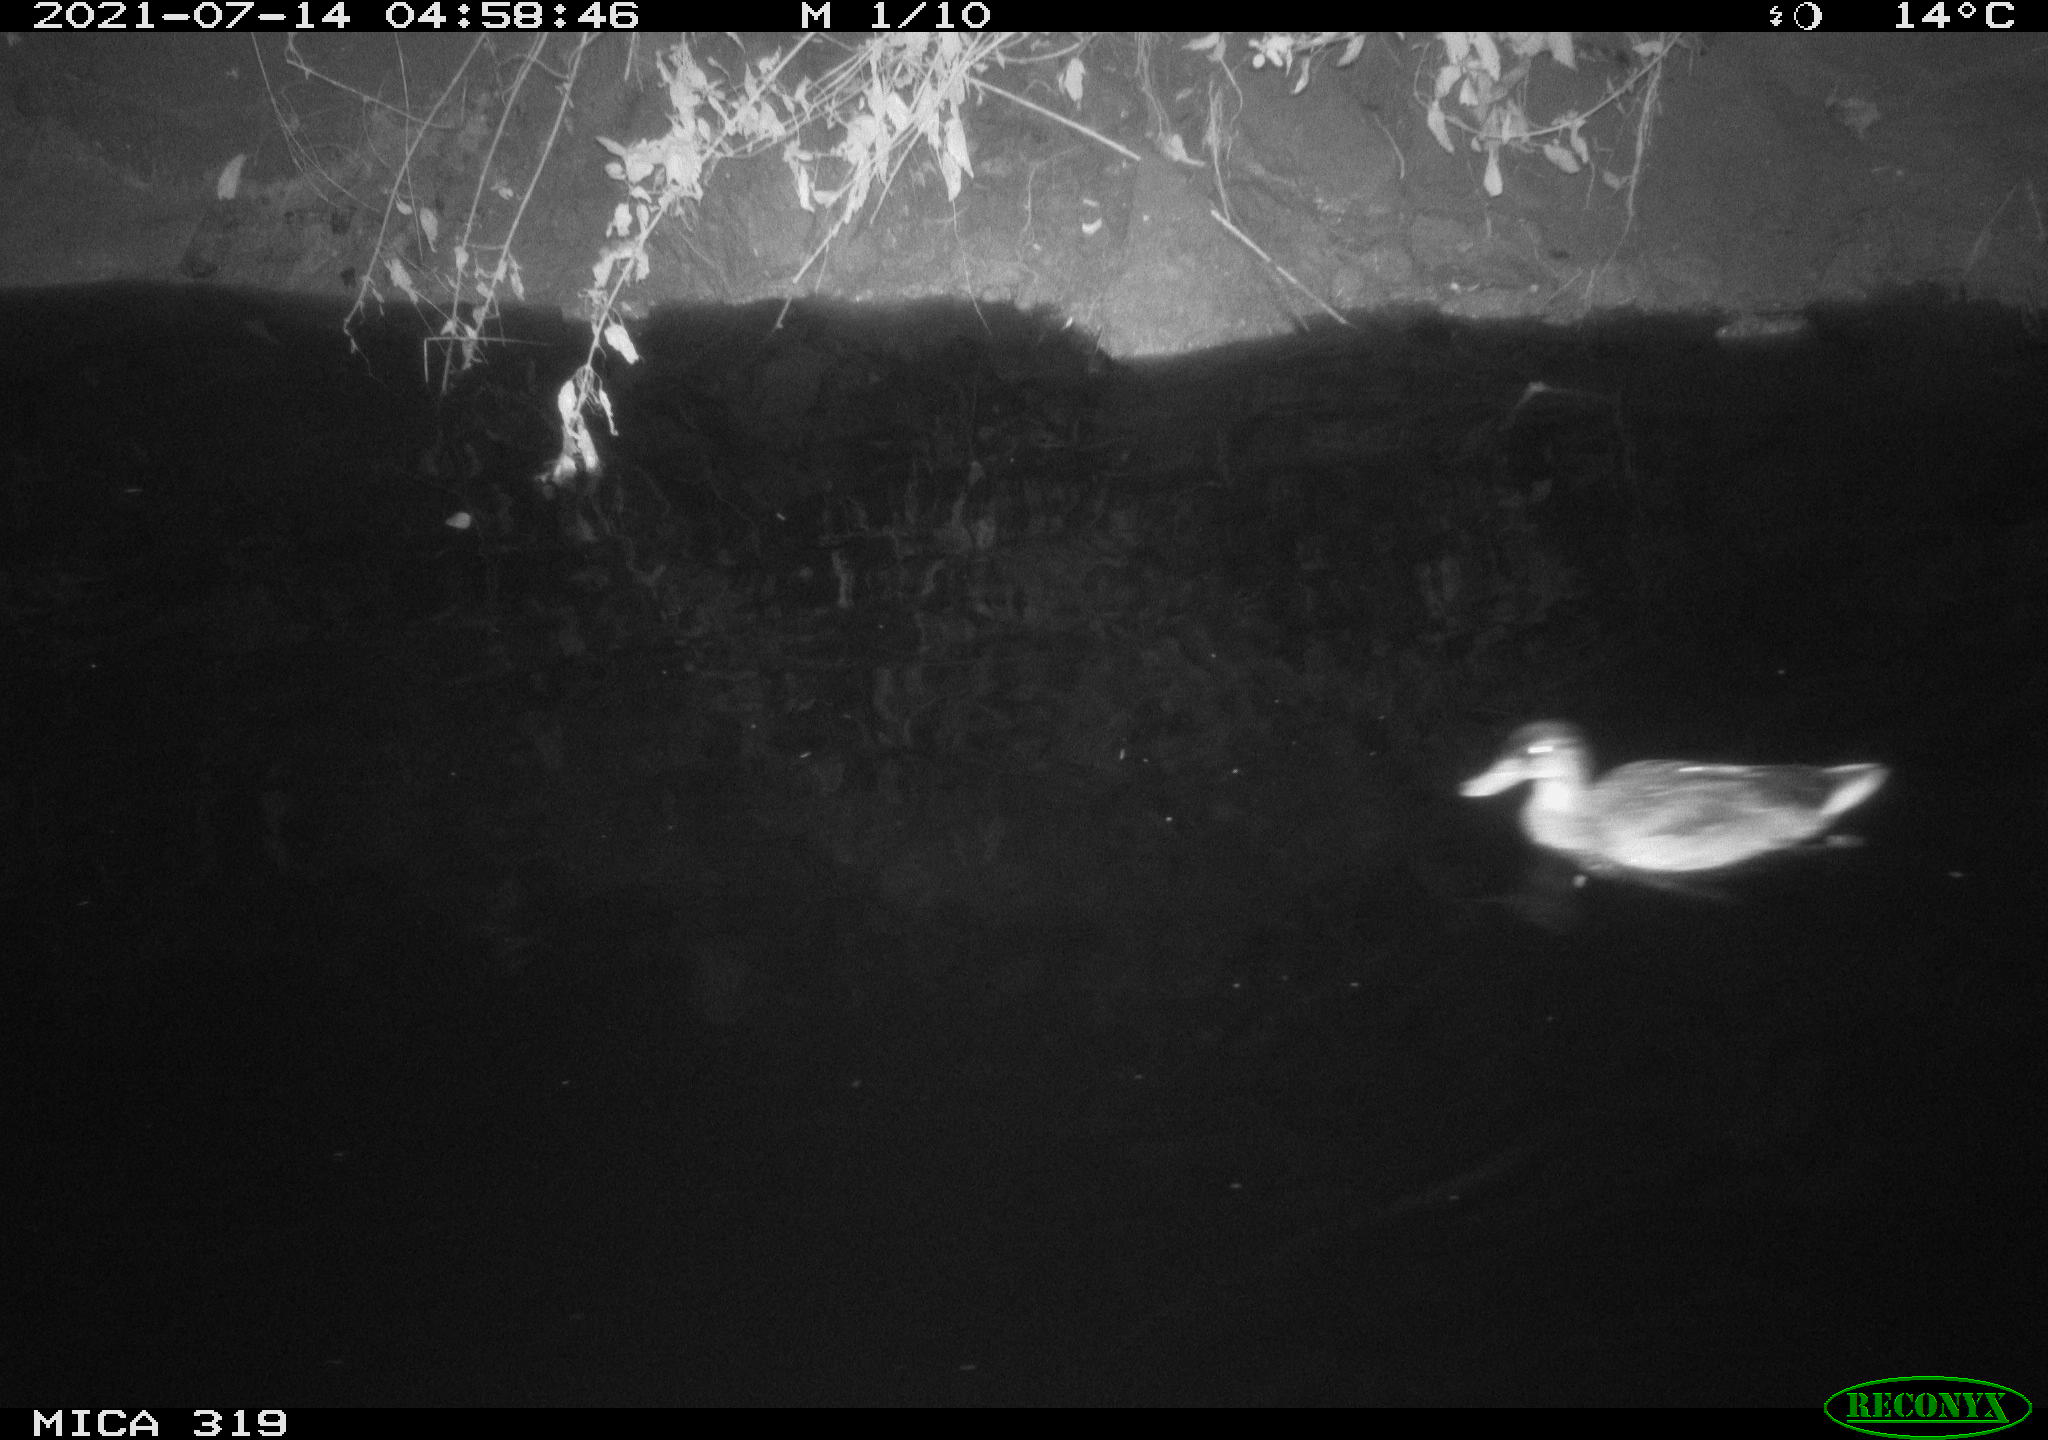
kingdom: Animalia
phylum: Chordata
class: Aves
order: Anseriformes
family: Anatidae
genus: Anas
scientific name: Anas platyrhynchos
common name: Mallard
